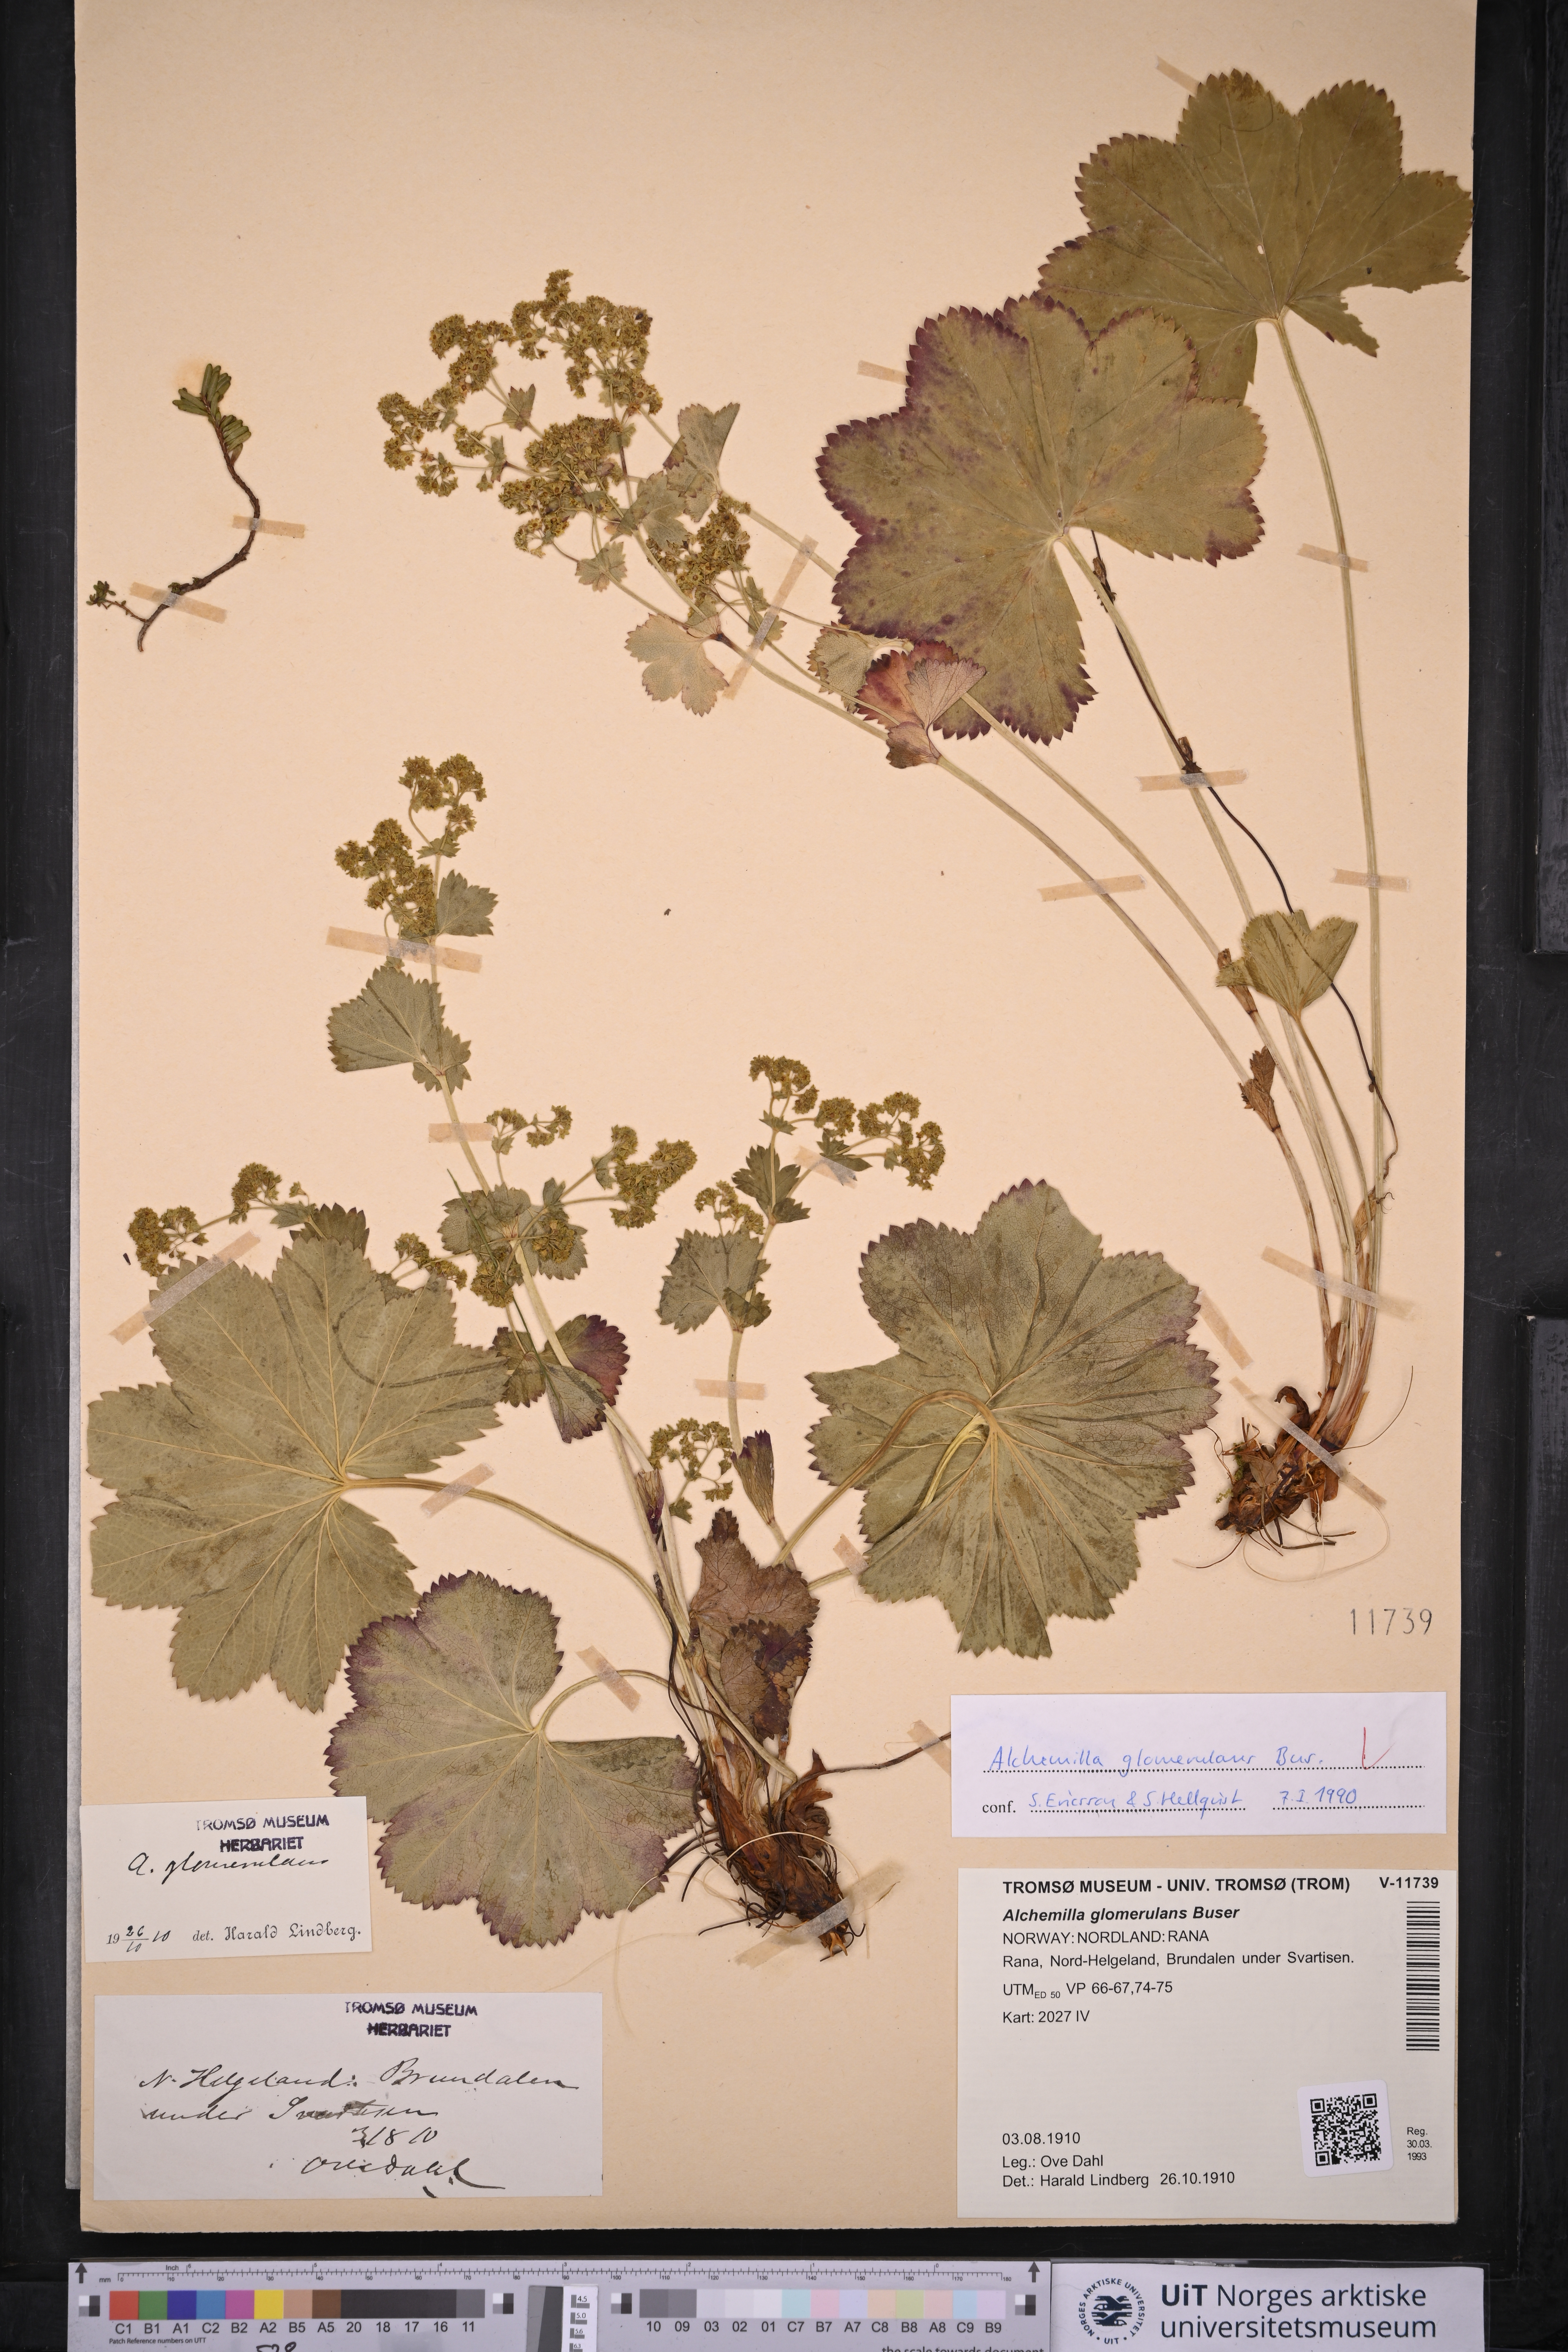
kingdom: Plantae
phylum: Tracheophyta
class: Magnoliopsida
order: Rosales
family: Rosaceae
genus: Alchemilla
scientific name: Alchemilla glomerulans
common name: Clustered lady's mantle
